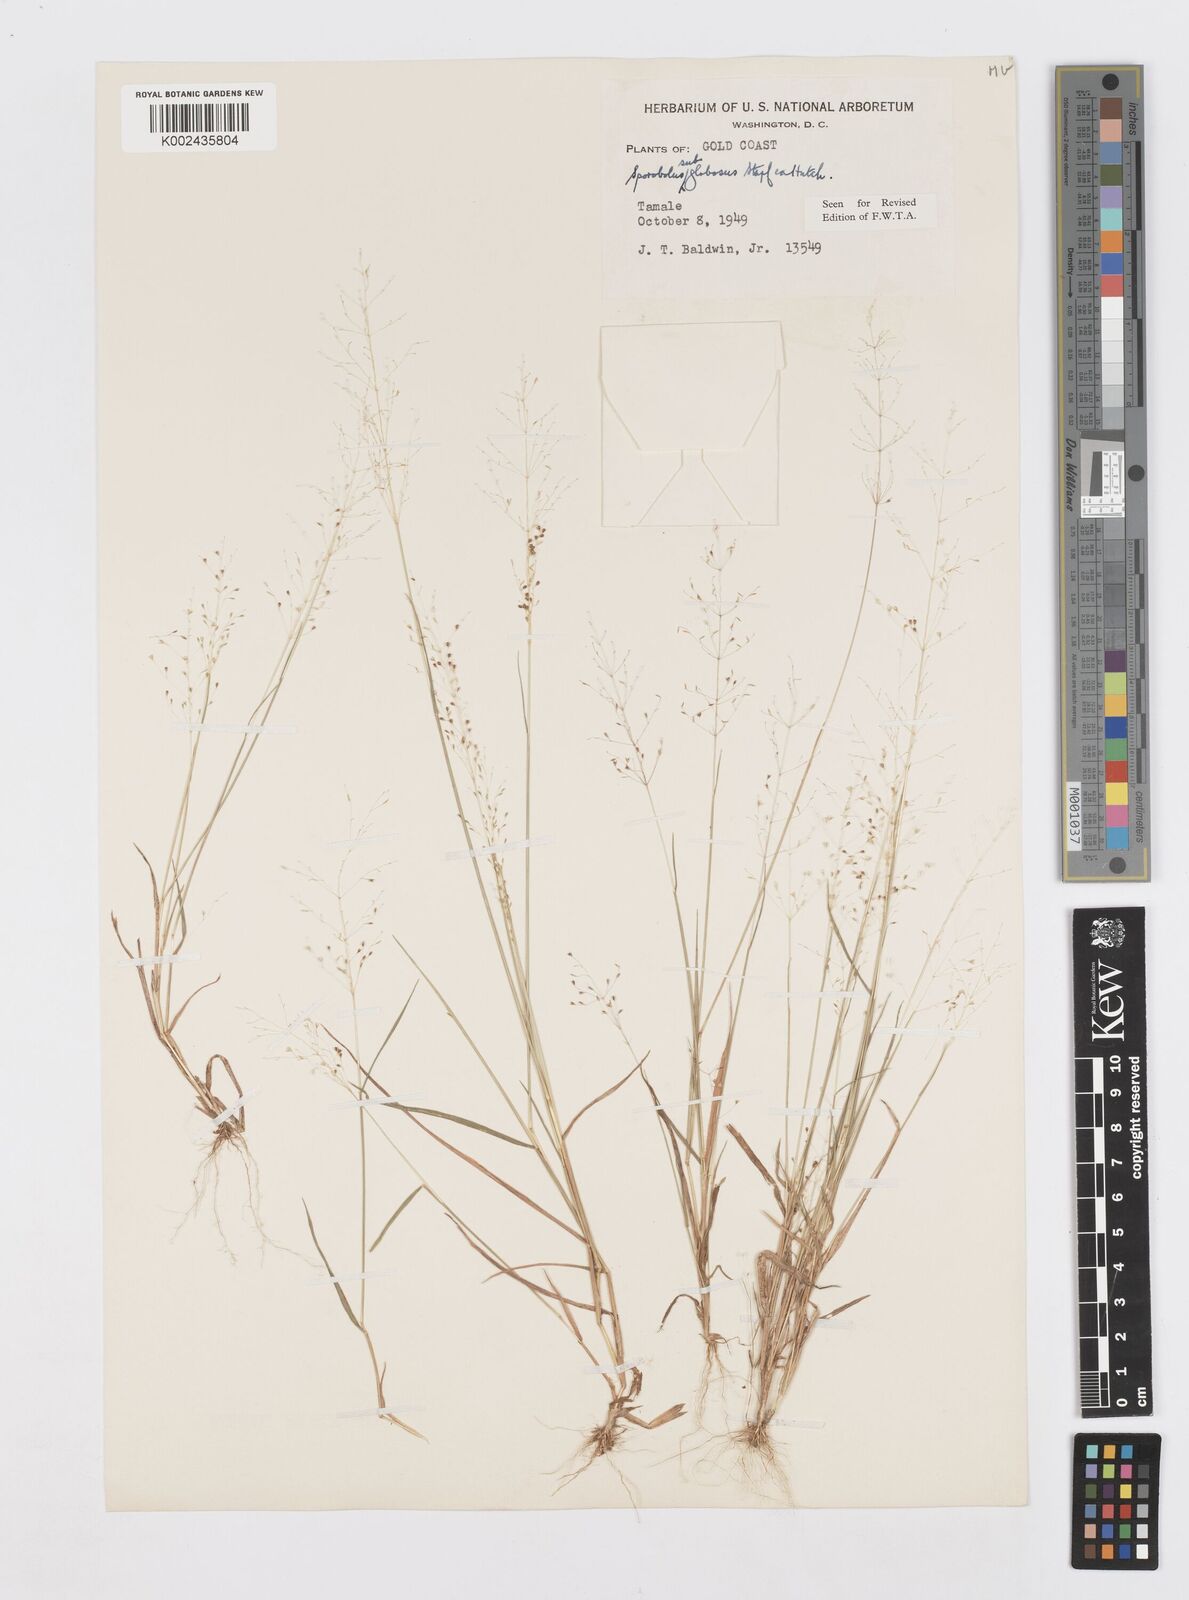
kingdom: Plantae
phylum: Tracheophyta
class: Liliopsida
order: Poales
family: Poaceae
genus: Sporobolus
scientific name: Sporobolus subglobosus
